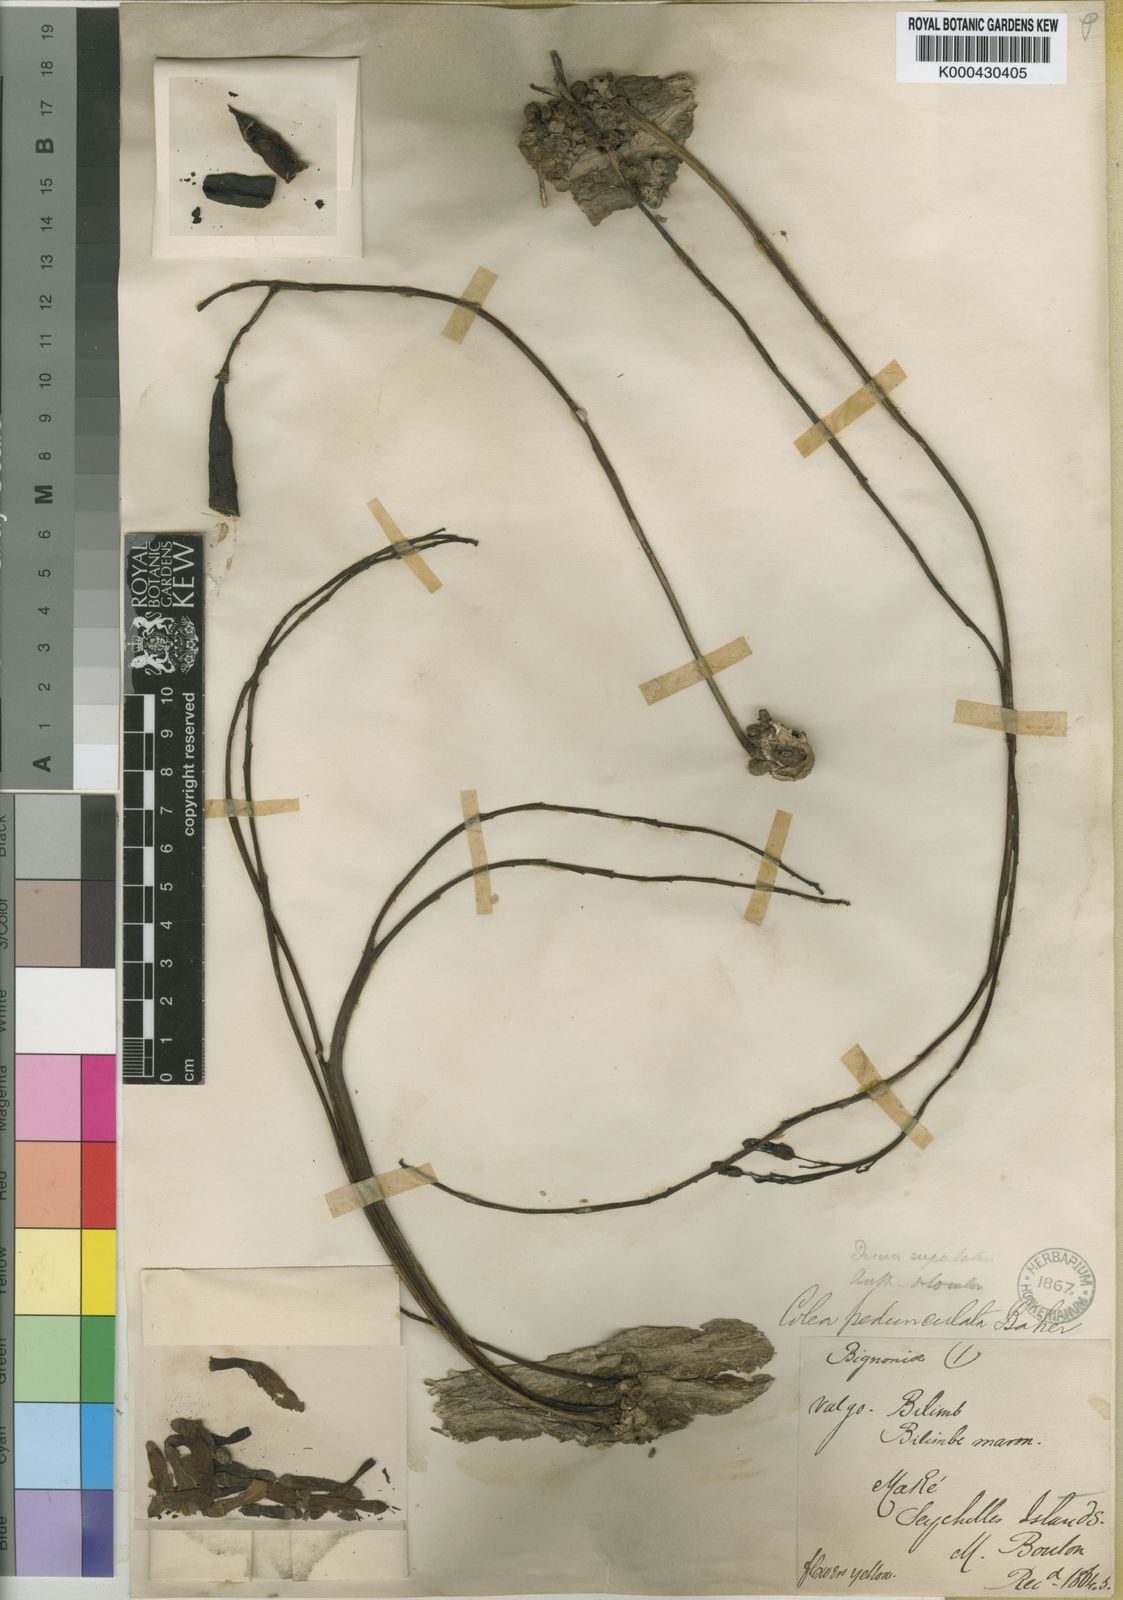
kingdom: Plantae
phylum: Tracheophyta
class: Magnoliopsida
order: Lamiales
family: Bignoniaceae
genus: Colea
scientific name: Colea seychellarum
